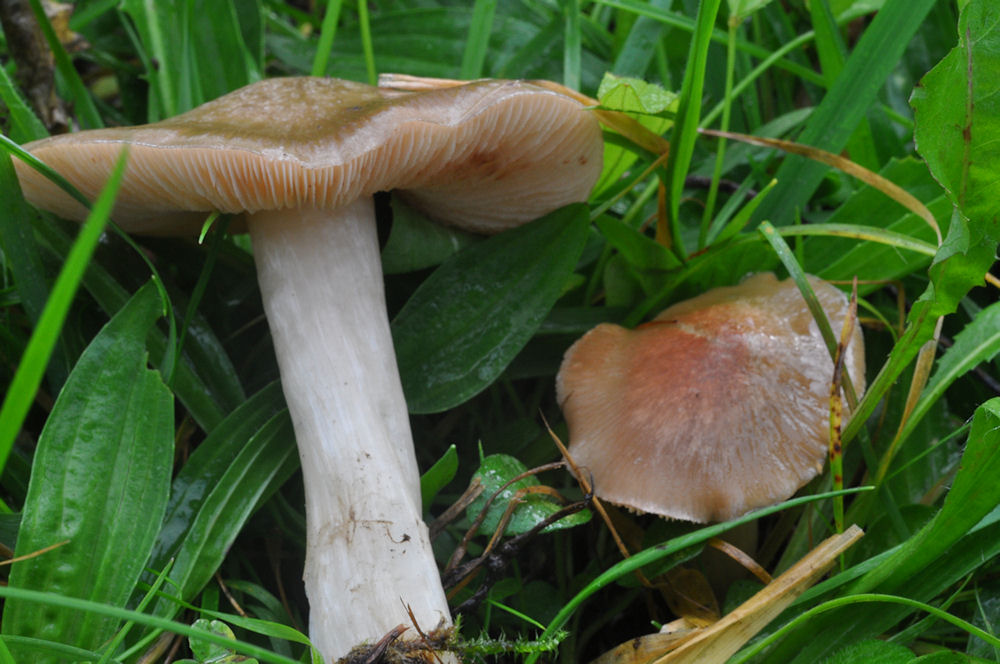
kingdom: Fungi
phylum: Basidiomycota
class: Agaricomycetes
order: Agaricales
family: Entolomataceae
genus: Entoloma
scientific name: Entoloma prunuloides
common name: mel-rødblad
